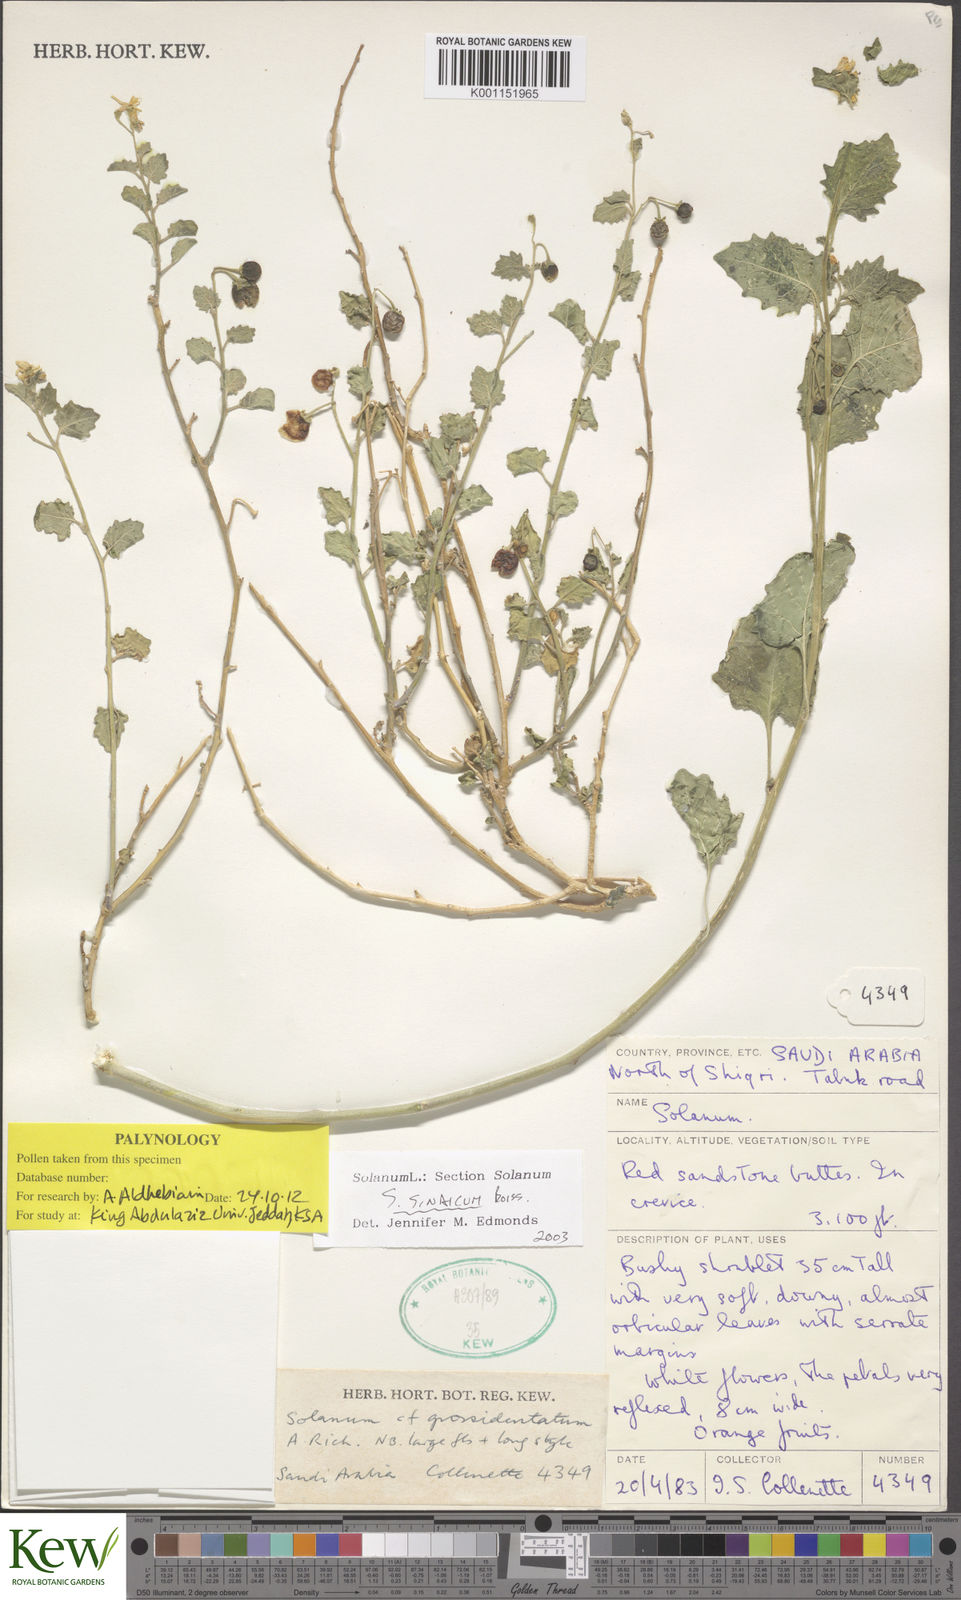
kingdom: Plantae
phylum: Tracheophyta
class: Magnoliopsida
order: Solanales
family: Solanaceae
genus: Solanum
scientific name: Solanum villosum
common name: Red nightshade
